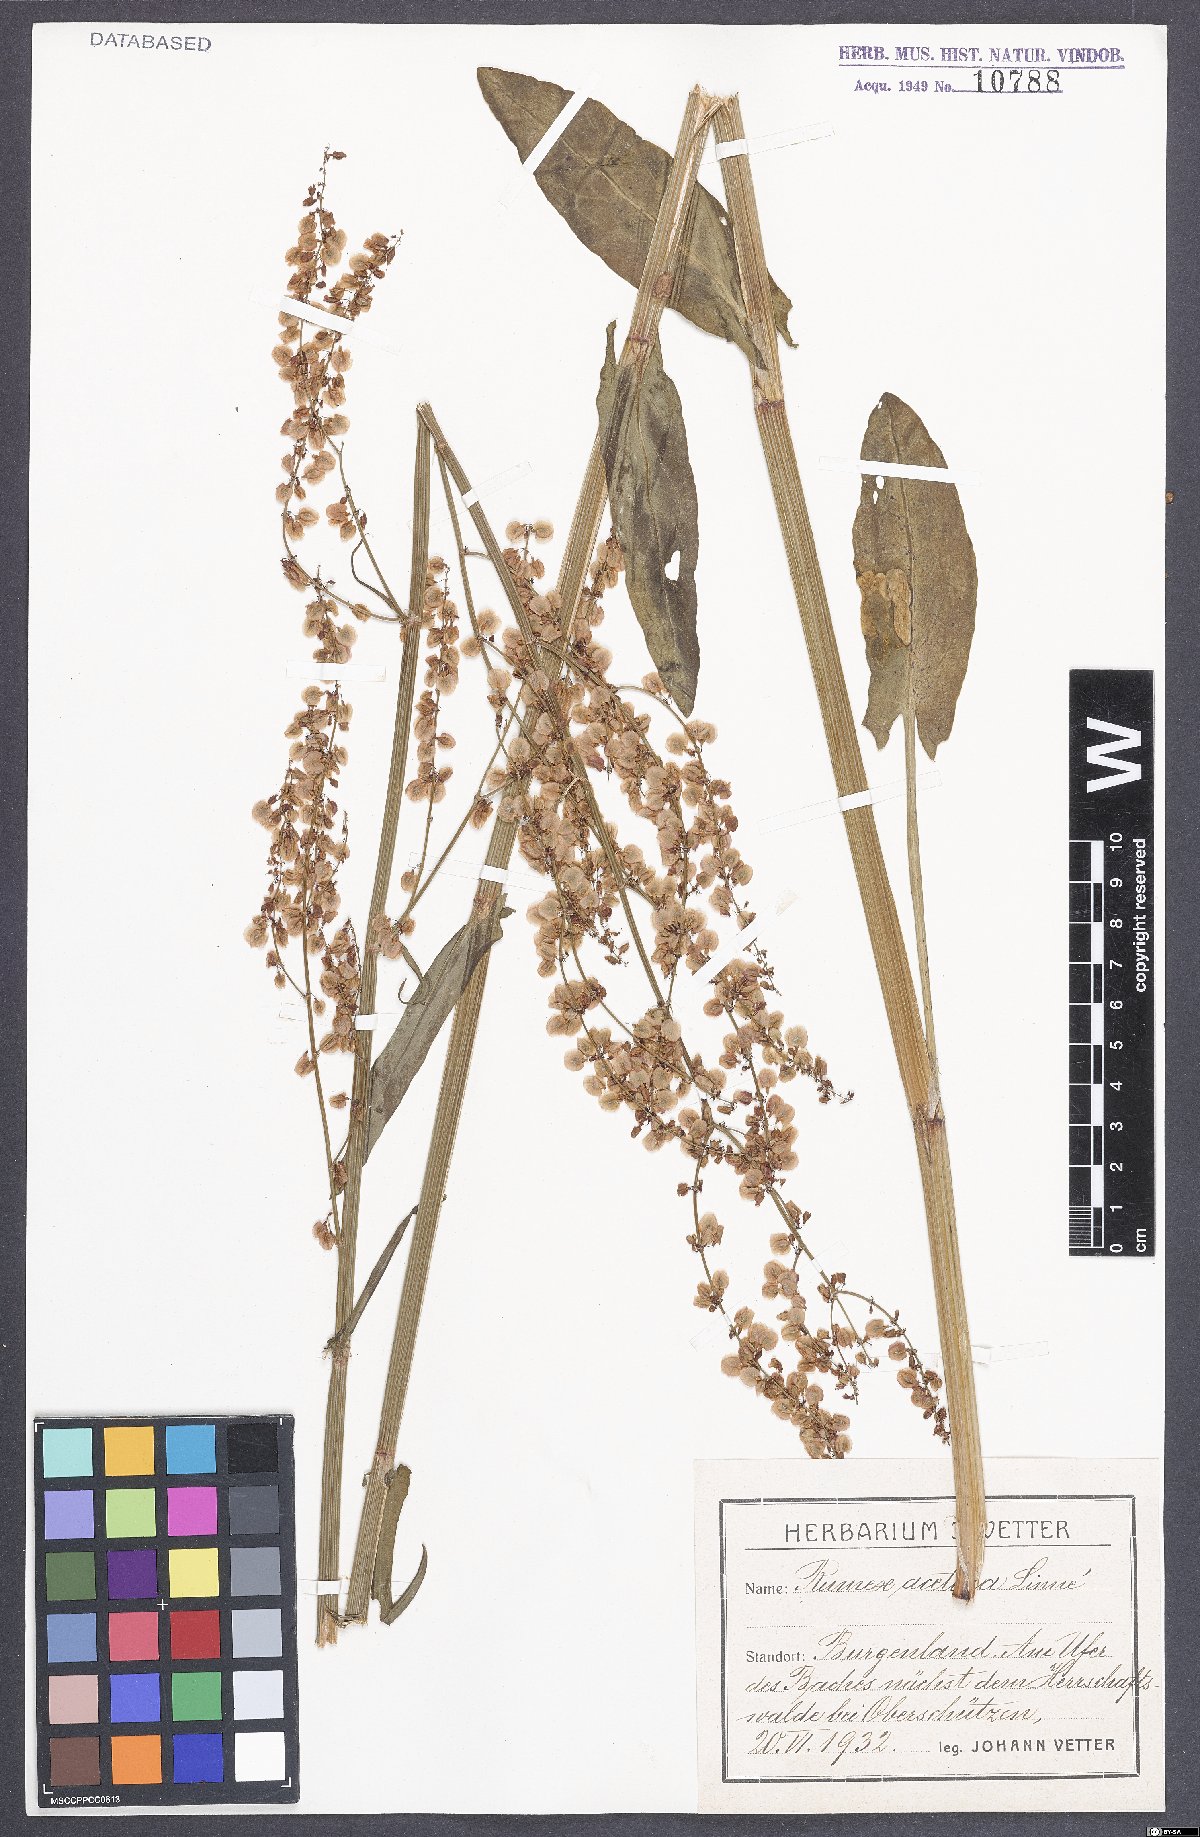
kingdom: Plantae
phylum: Tracheophyta
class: Magnoliopsida
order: Caryophyllales
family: Polygonaceae
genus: Rumex
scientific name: Rumex acetosa
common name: Garden sorrel
